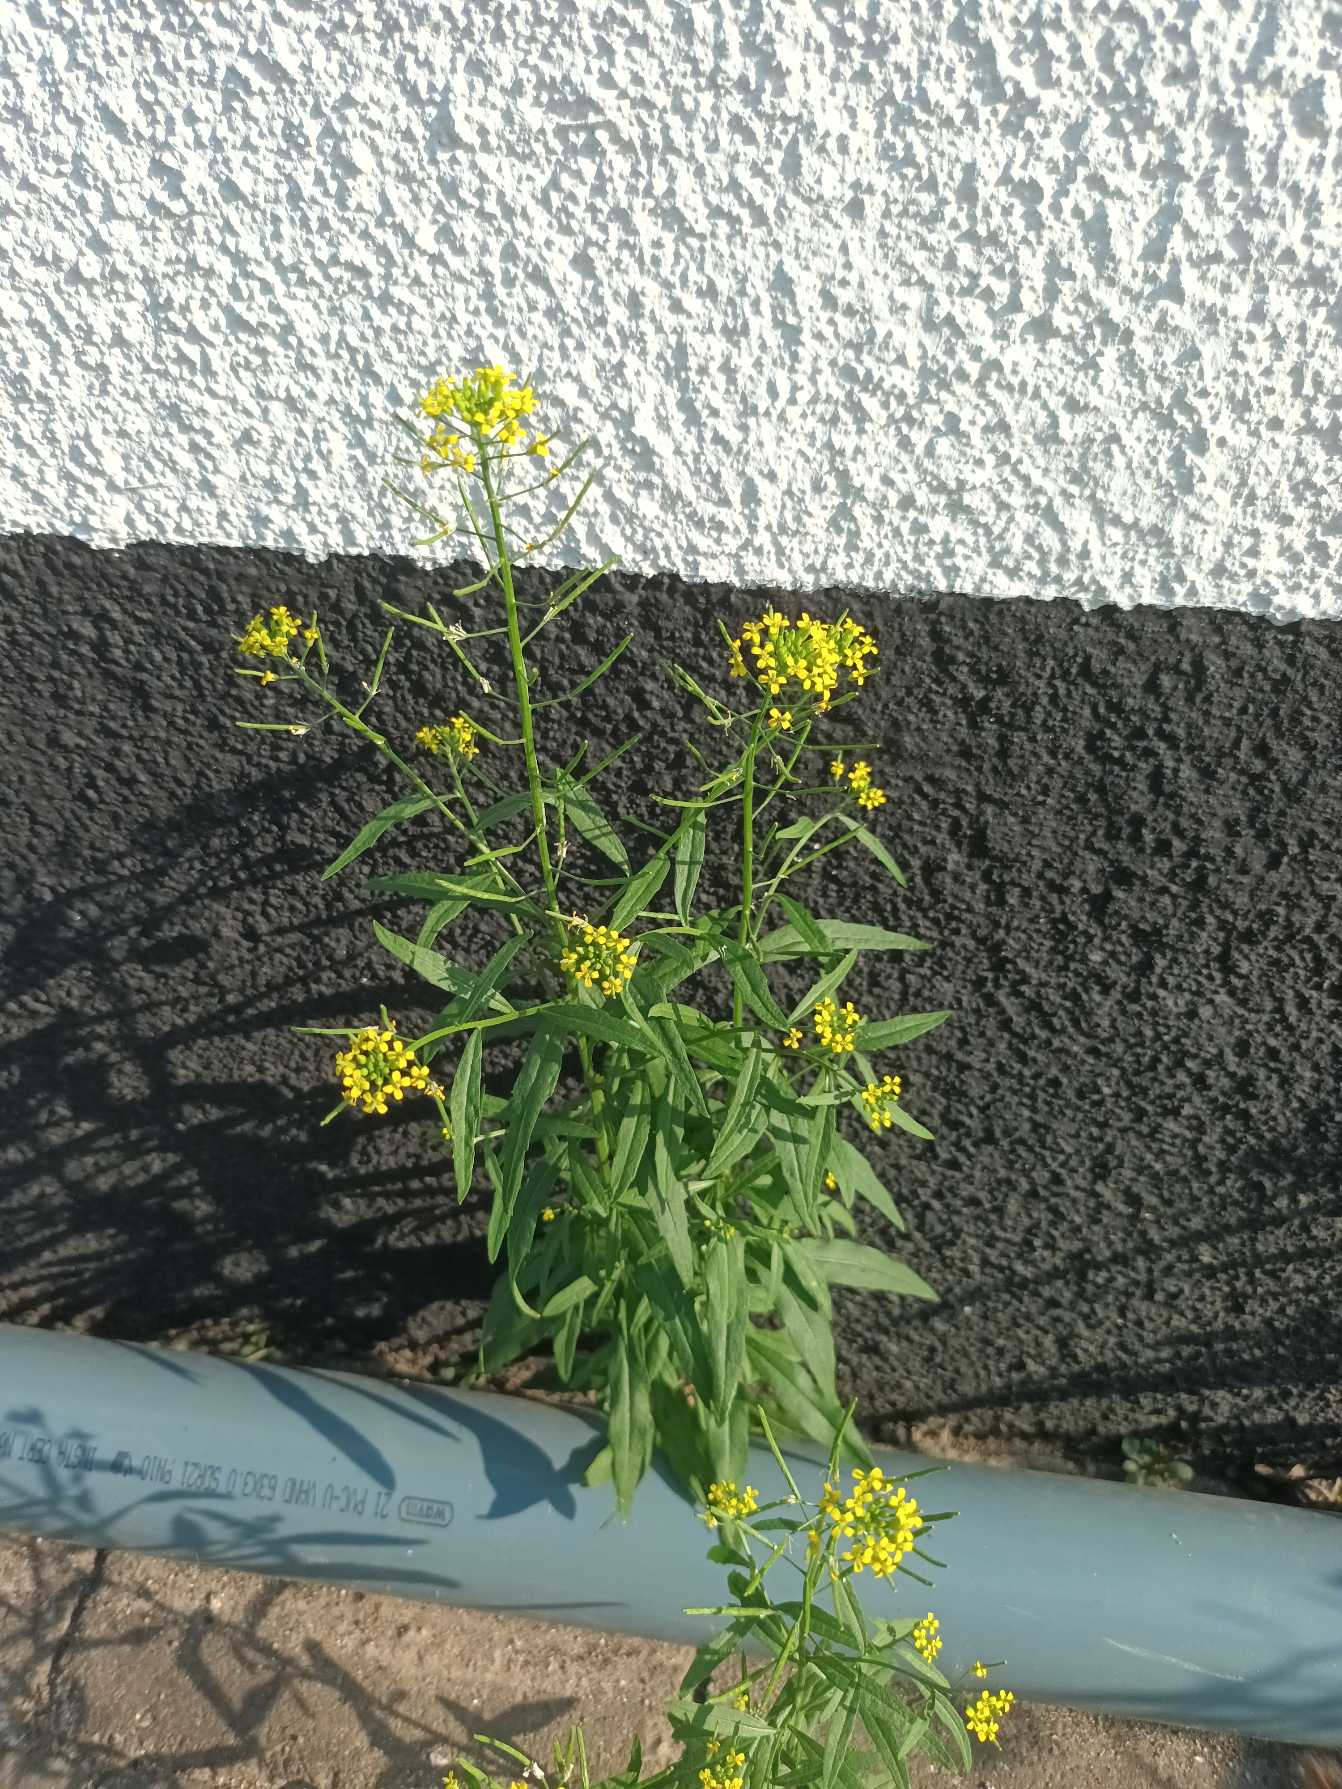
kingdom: Plantae
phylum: Tracheophyta
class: Magnoliopsida
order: Brassicales
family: Brassicaceae
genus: Erysimum
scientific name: Erysimum cheiranthoides
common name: Gyldenlak-hjørneklap
